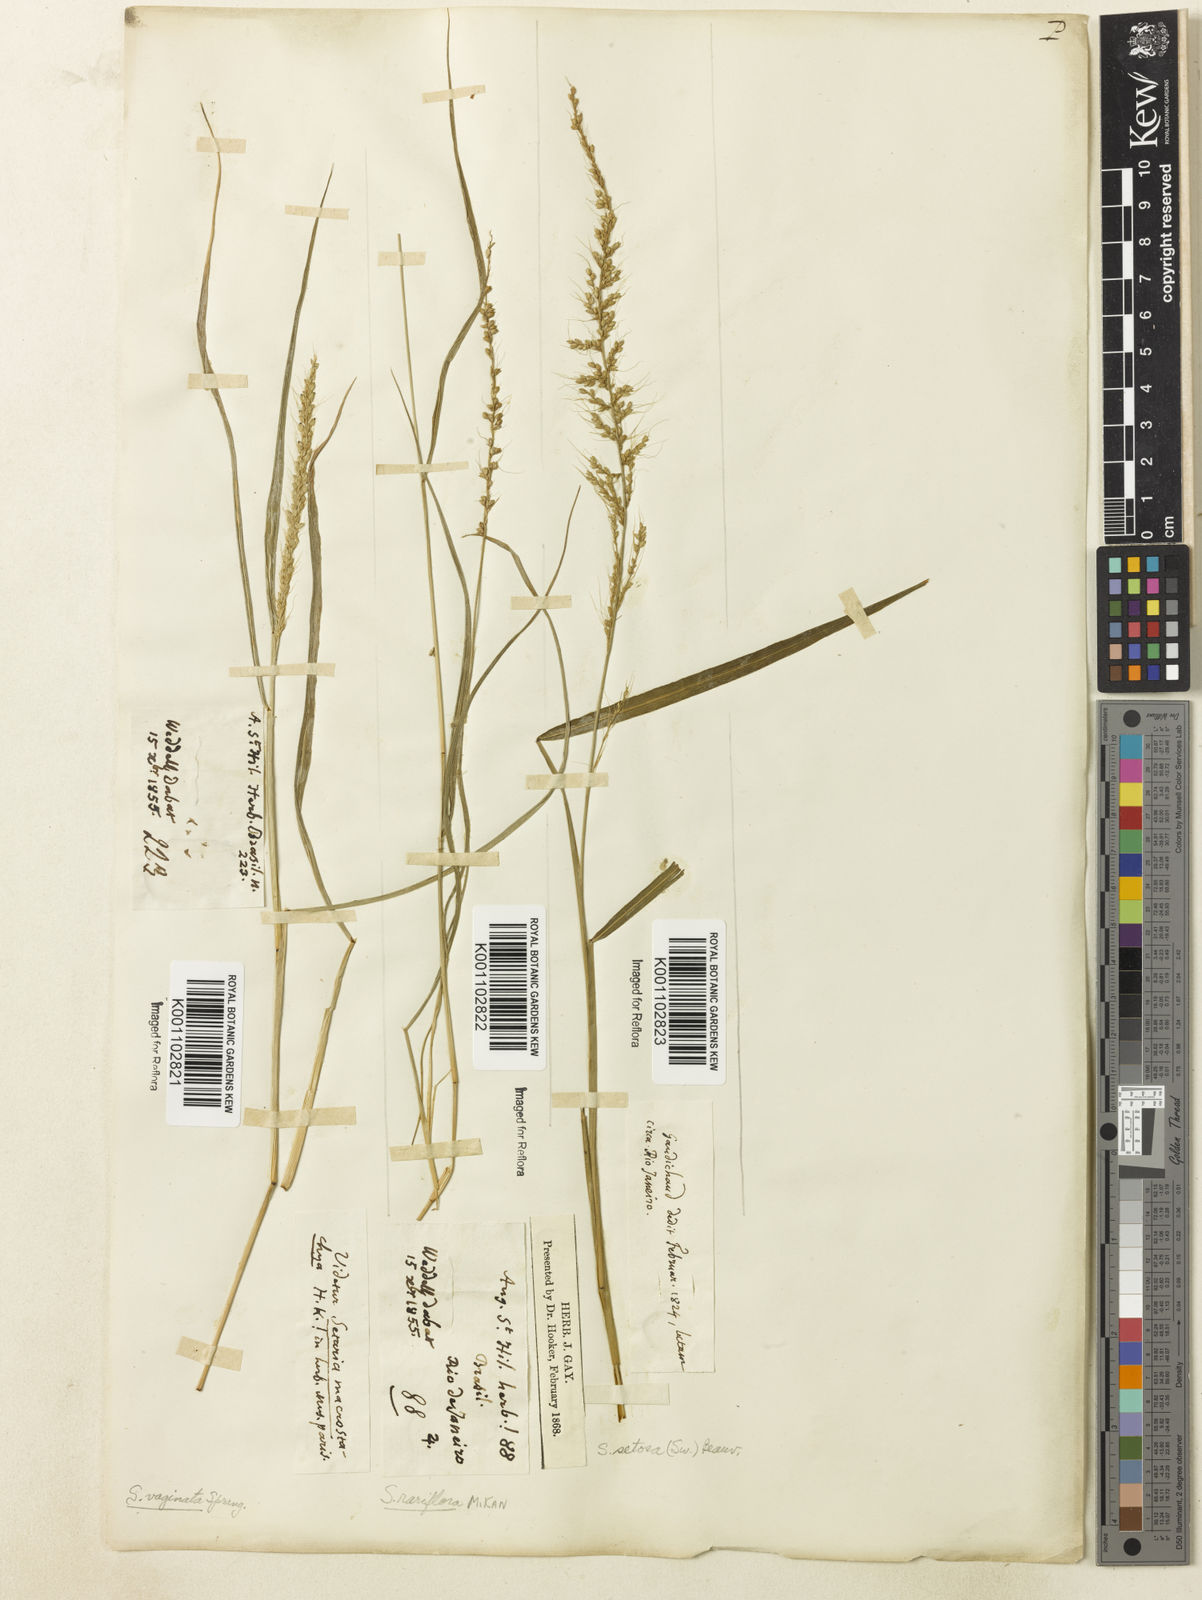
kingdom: Plantae
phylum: Tracheophyta
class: Liliopsida
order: Poales
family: Poaceae
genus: Setaria
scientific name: Setaria setosa
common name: West indies bristle grass
